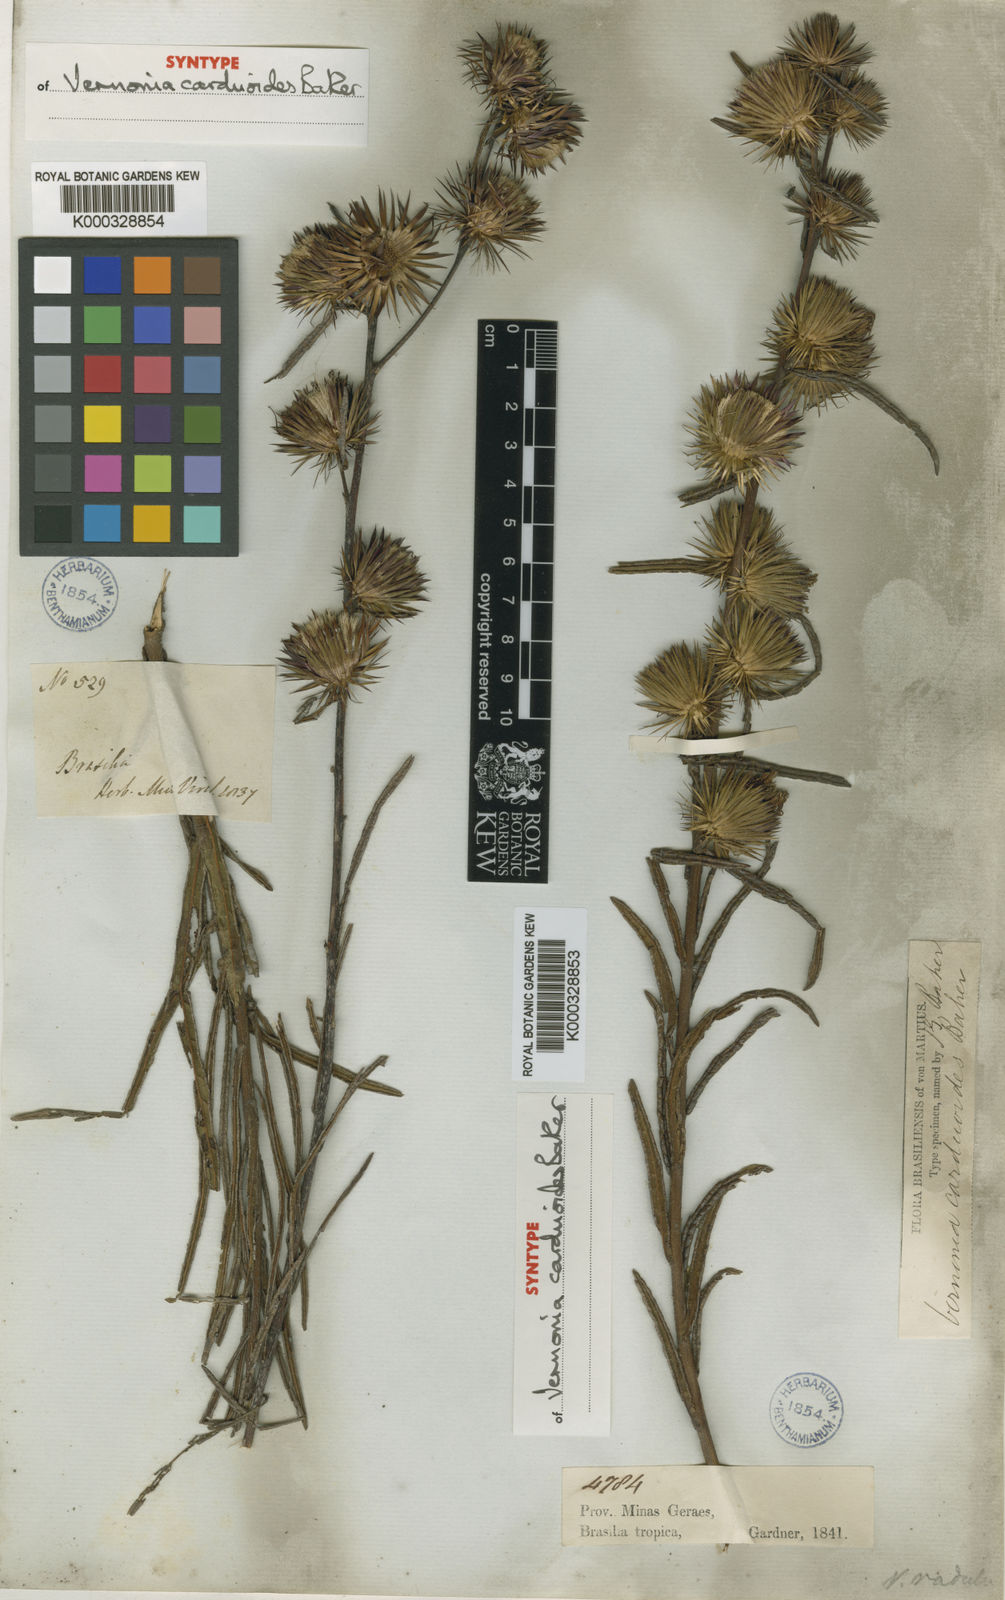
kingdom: Plantae
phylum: Tracheophyta
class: Magnoliopsida
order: Asterales
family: Asteraceae
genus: Lessingianthus
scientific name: Lessingianthus carduoides
